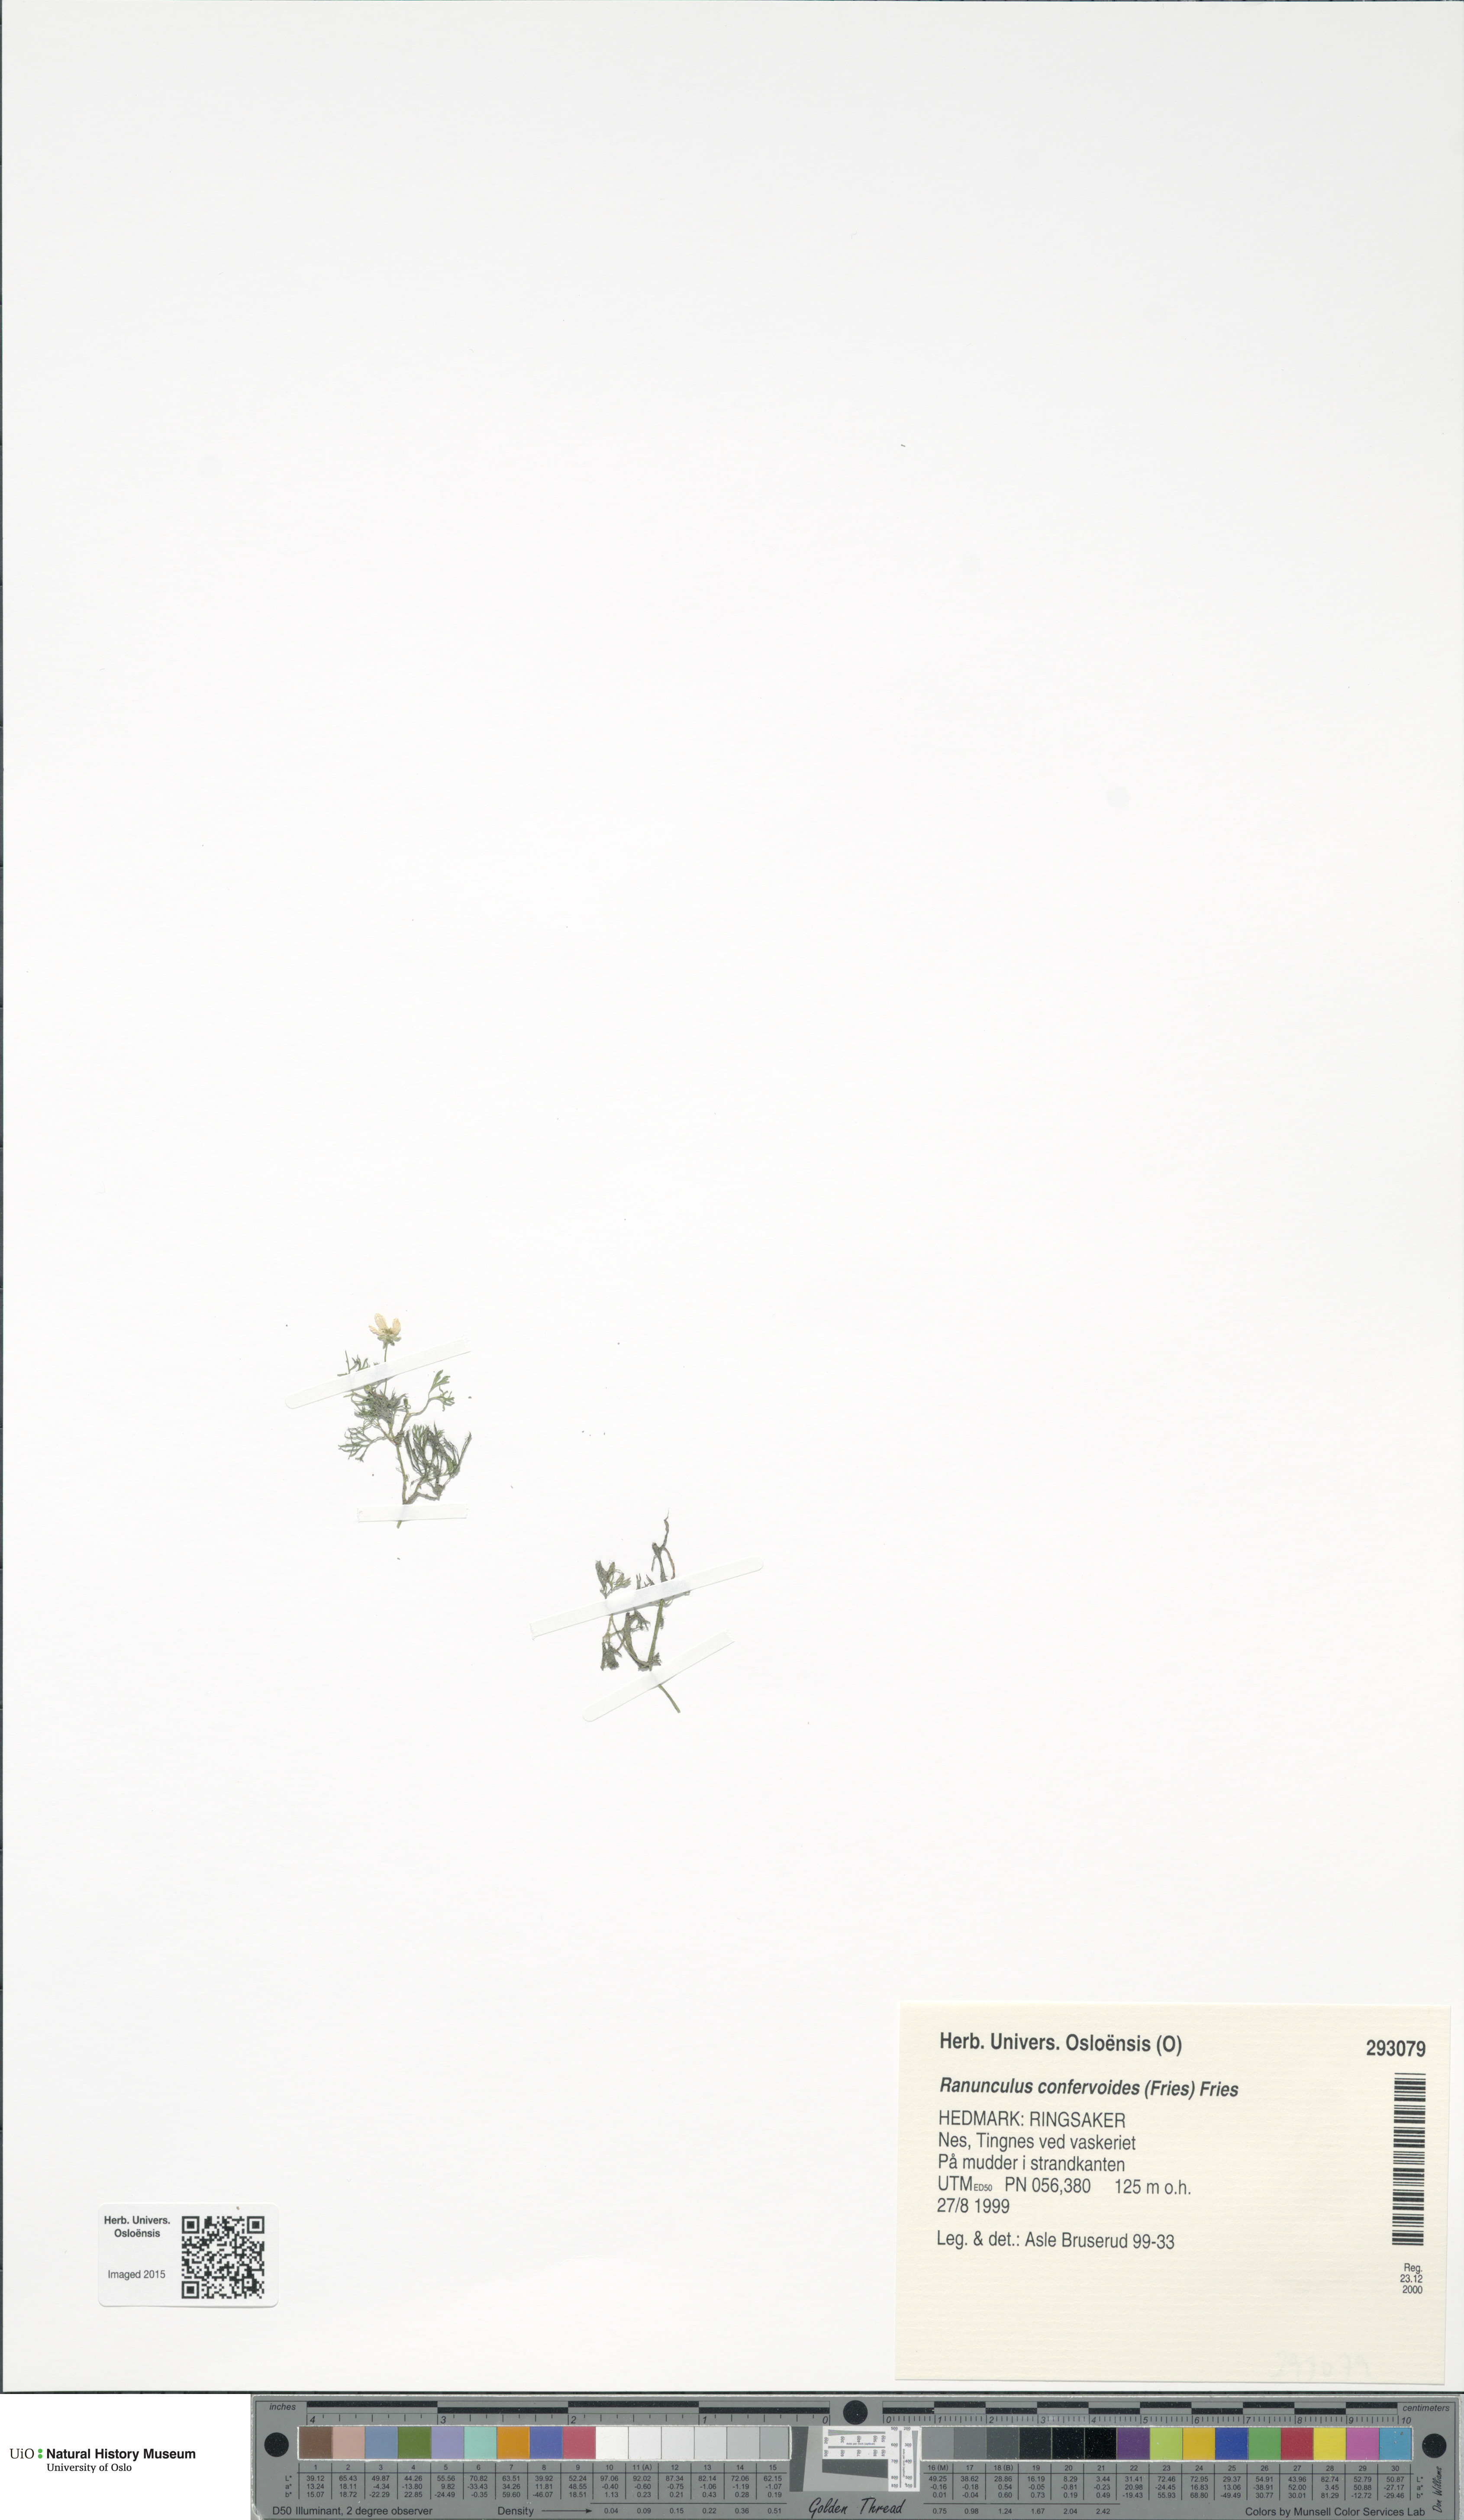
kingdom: Plantae
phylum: Tracheophyta
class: Magnoliopsida
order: Ranunculales
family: Ranunculaceae
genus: Ranunculus
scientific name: Ranunculus confervoides
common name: Delicate buttercup
